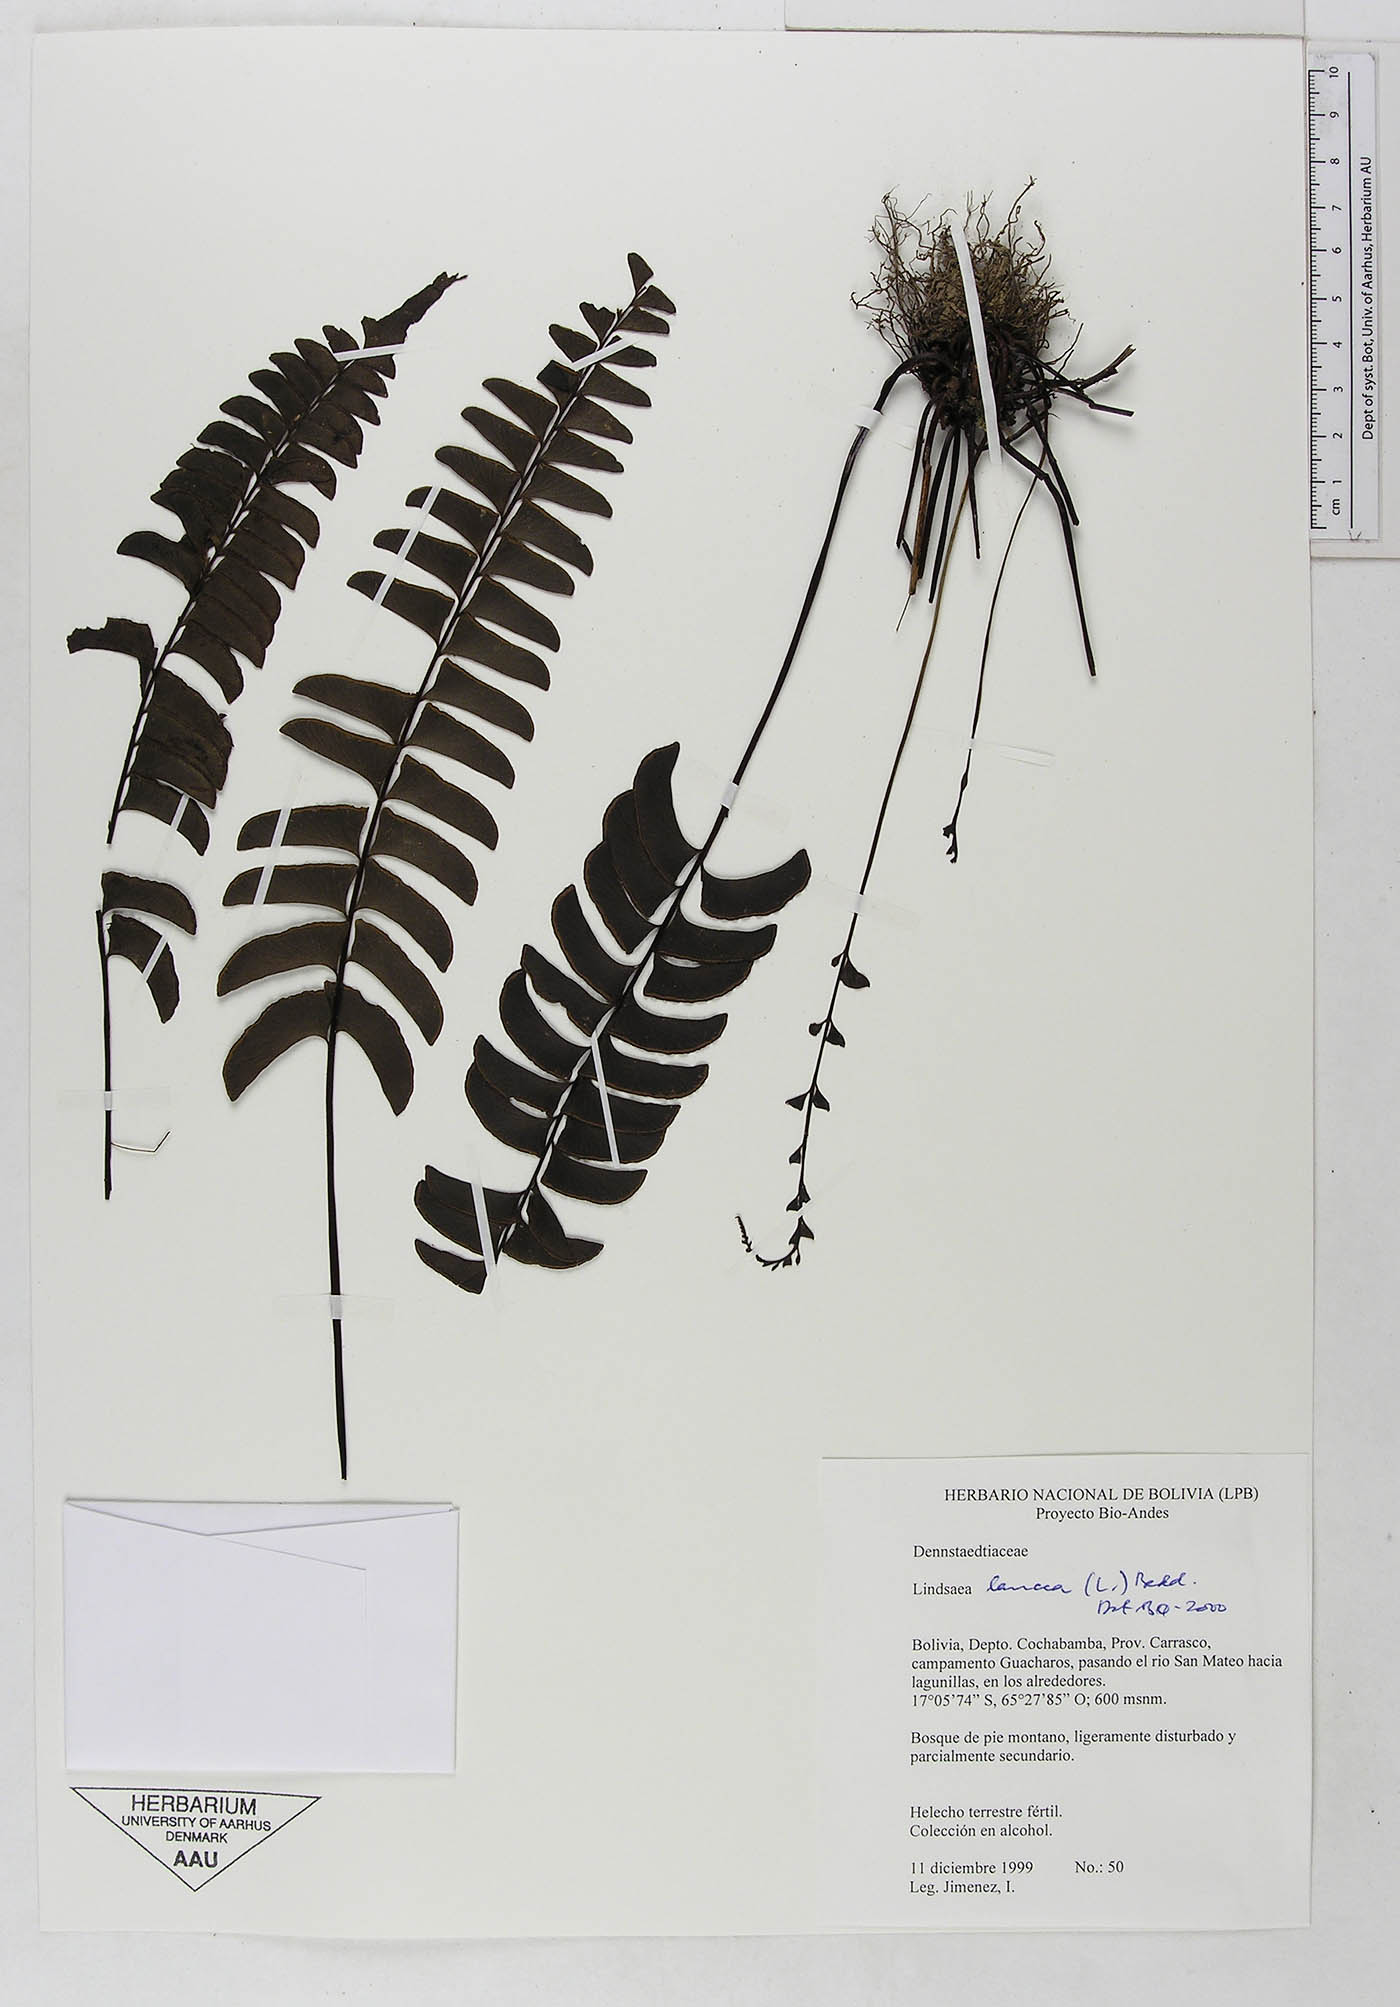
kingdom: Plantae
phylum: Tracheophyta
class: Polypodiopsida
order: Polypodiales
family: Dennstaedtiaceae
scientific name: Dennstaedtiaceae
